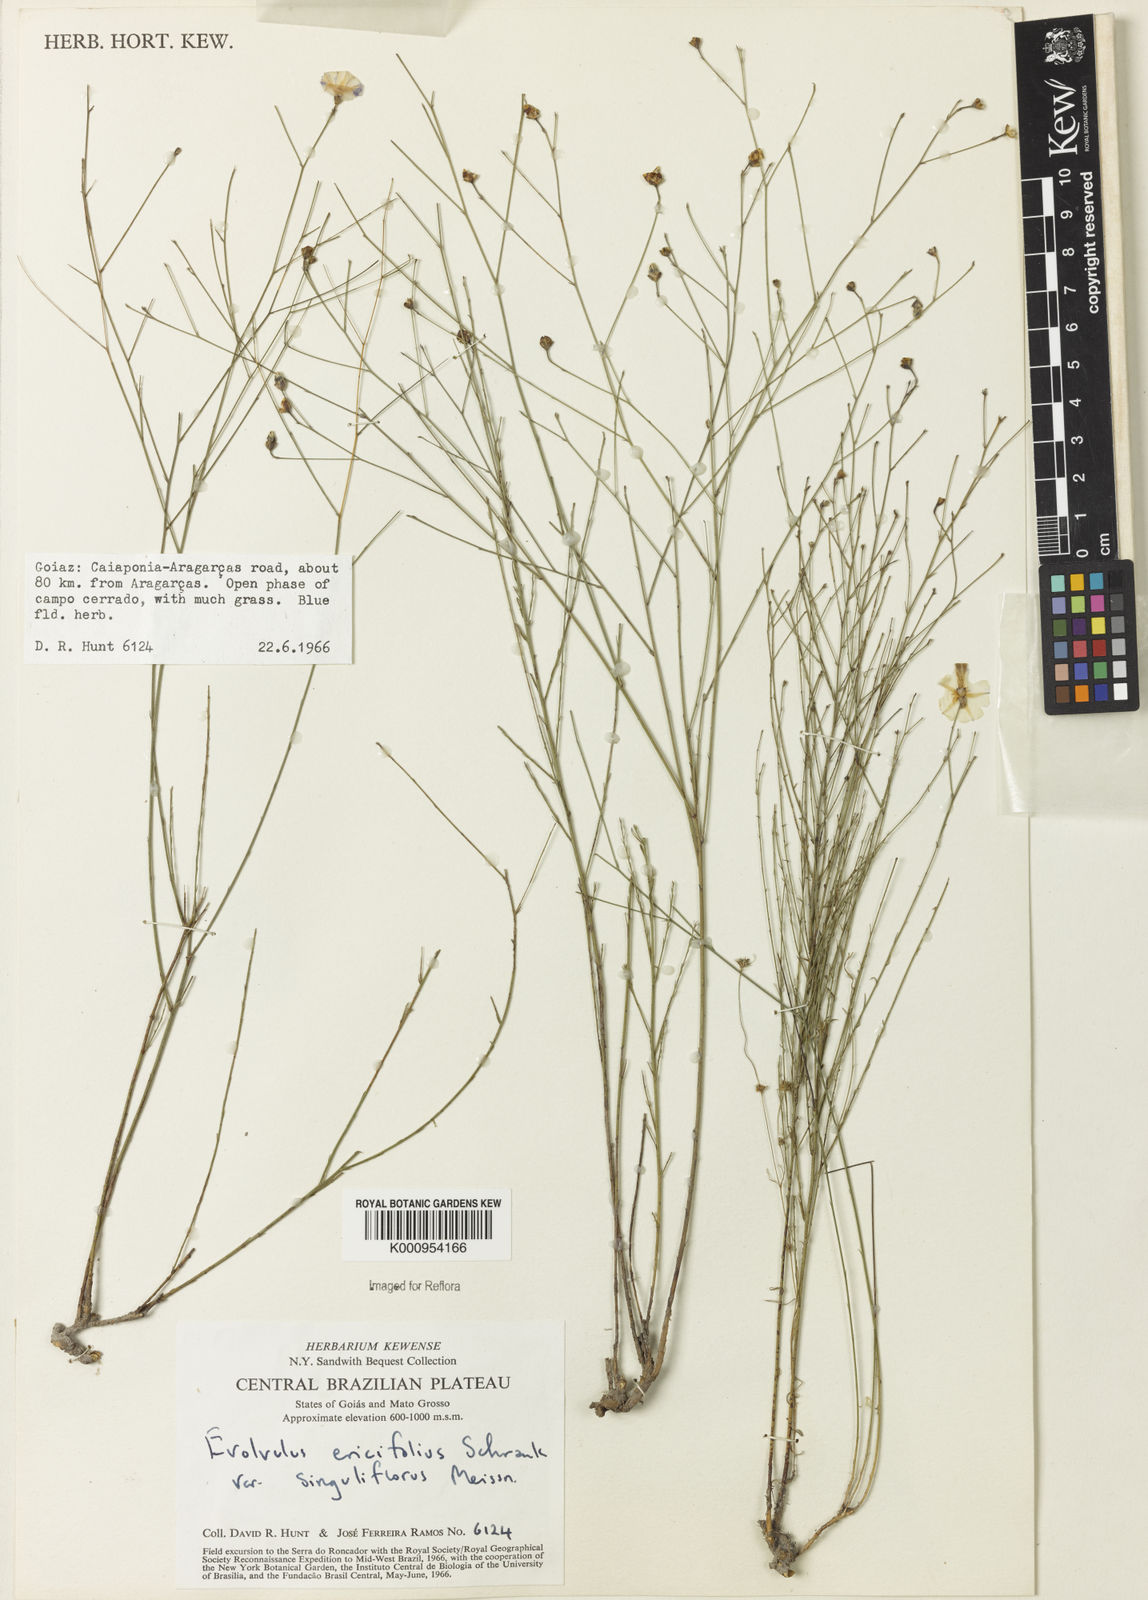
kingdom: Plantae
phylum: Tracheophyta
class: Magnoliopsida
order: Solanales
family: Convolvulaceae
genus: Evolvulus
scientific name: Evolvulus ericifolius
